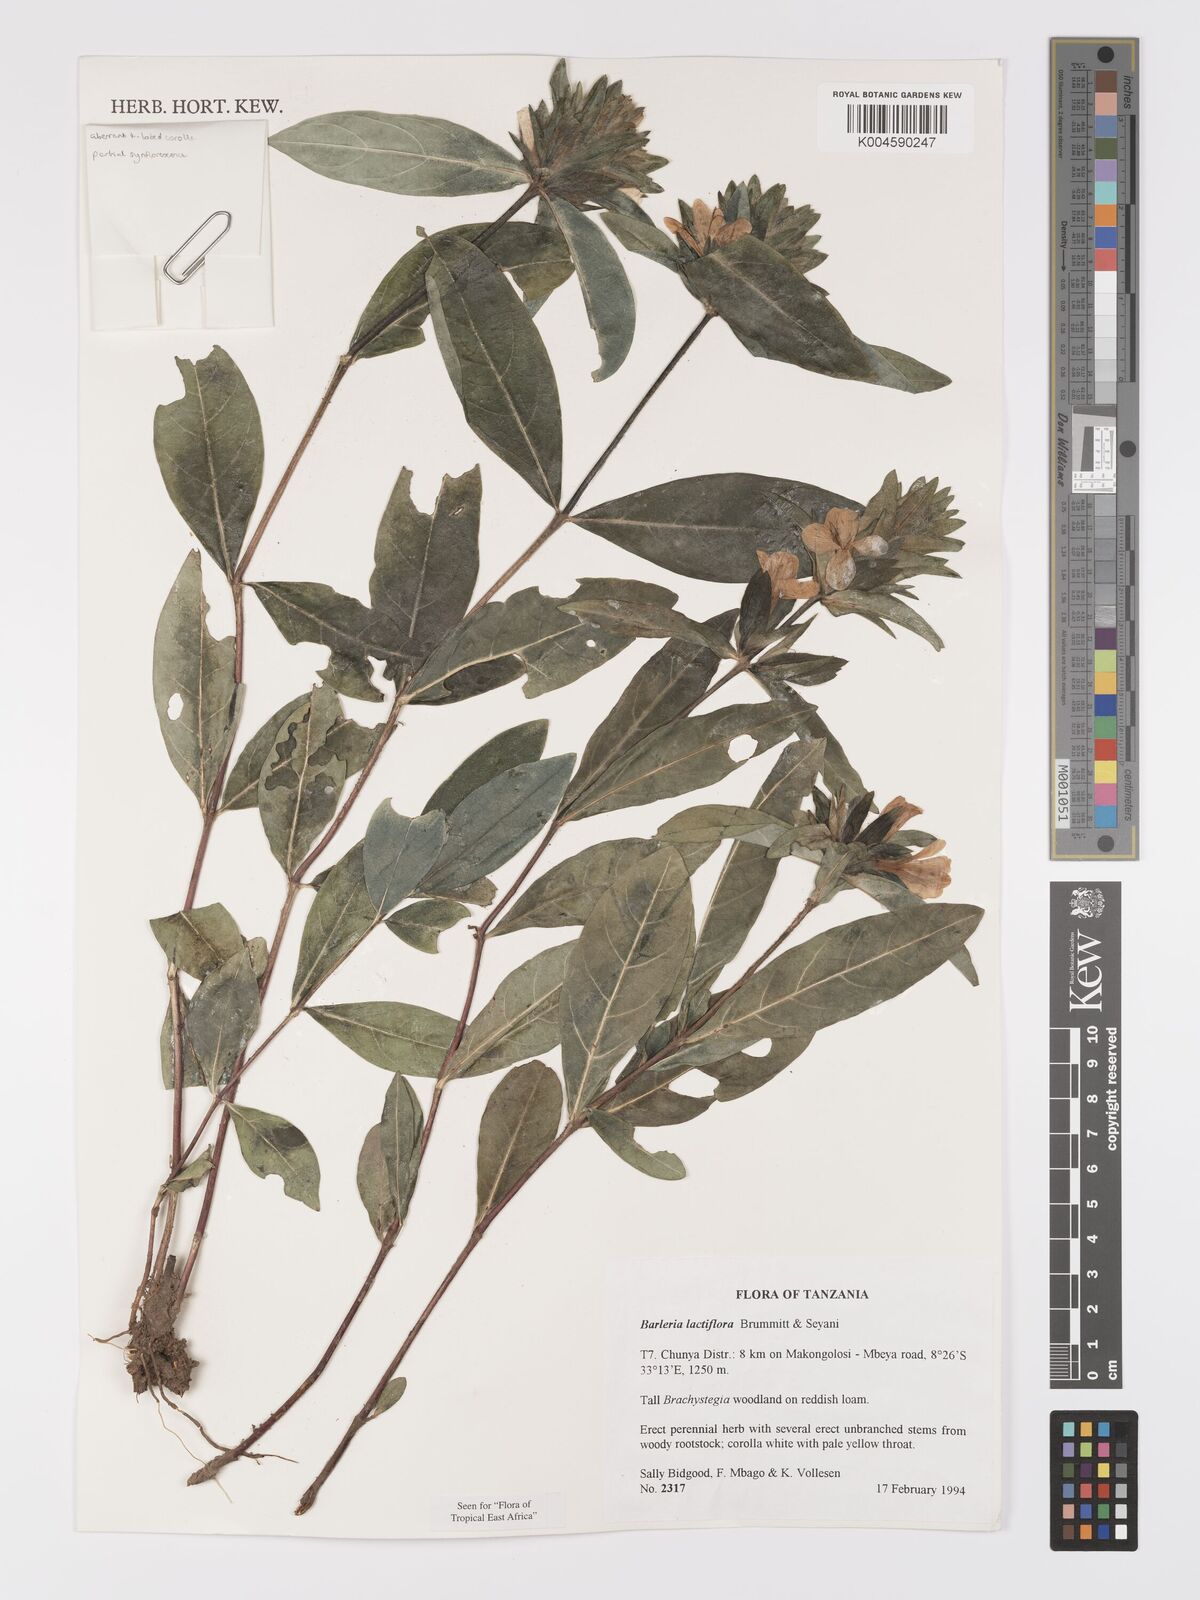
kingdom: Plantae
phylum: Tracheophyta
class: Magnoliopsida
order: Lamiales
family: Acanthaceae
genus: Barleria
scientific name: Barleria lactiflora
